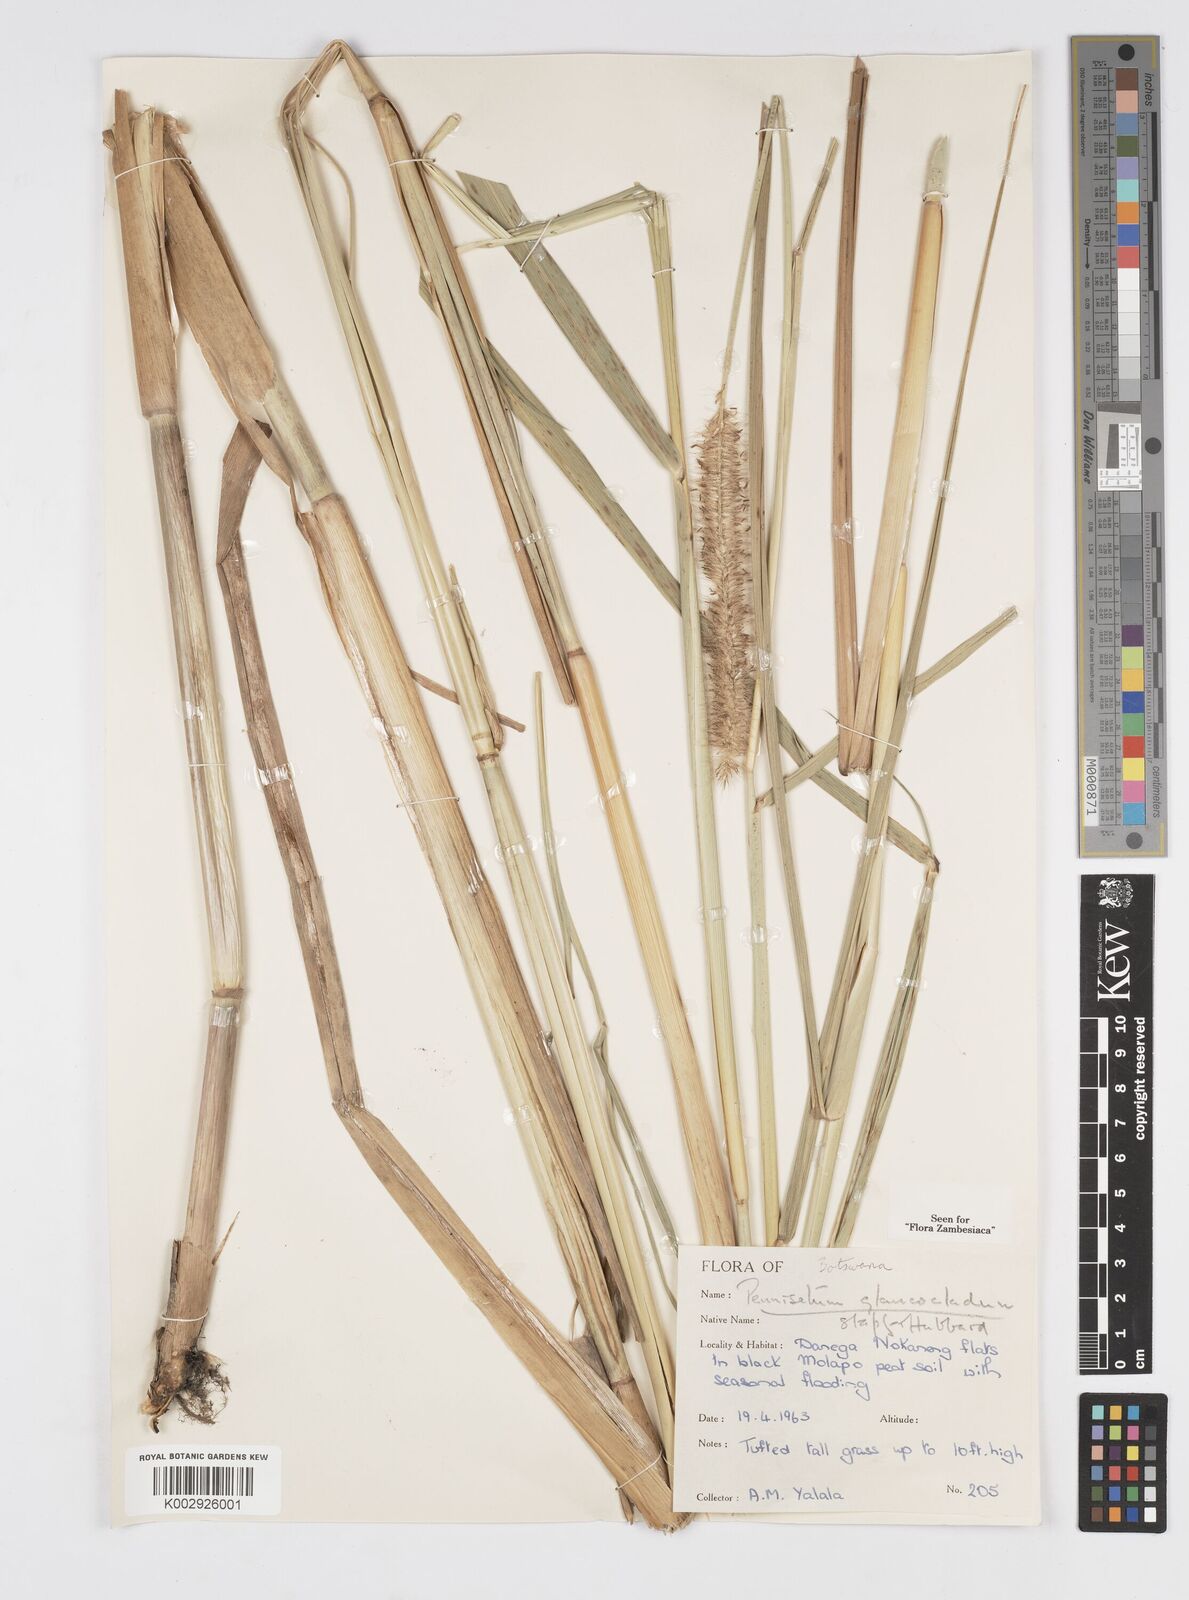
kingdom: Plantae
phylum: Tracheophyta
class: Liliopsida
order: Poales
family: Poaceae
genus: Cenchrus
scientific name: Cenchrus caudatus
